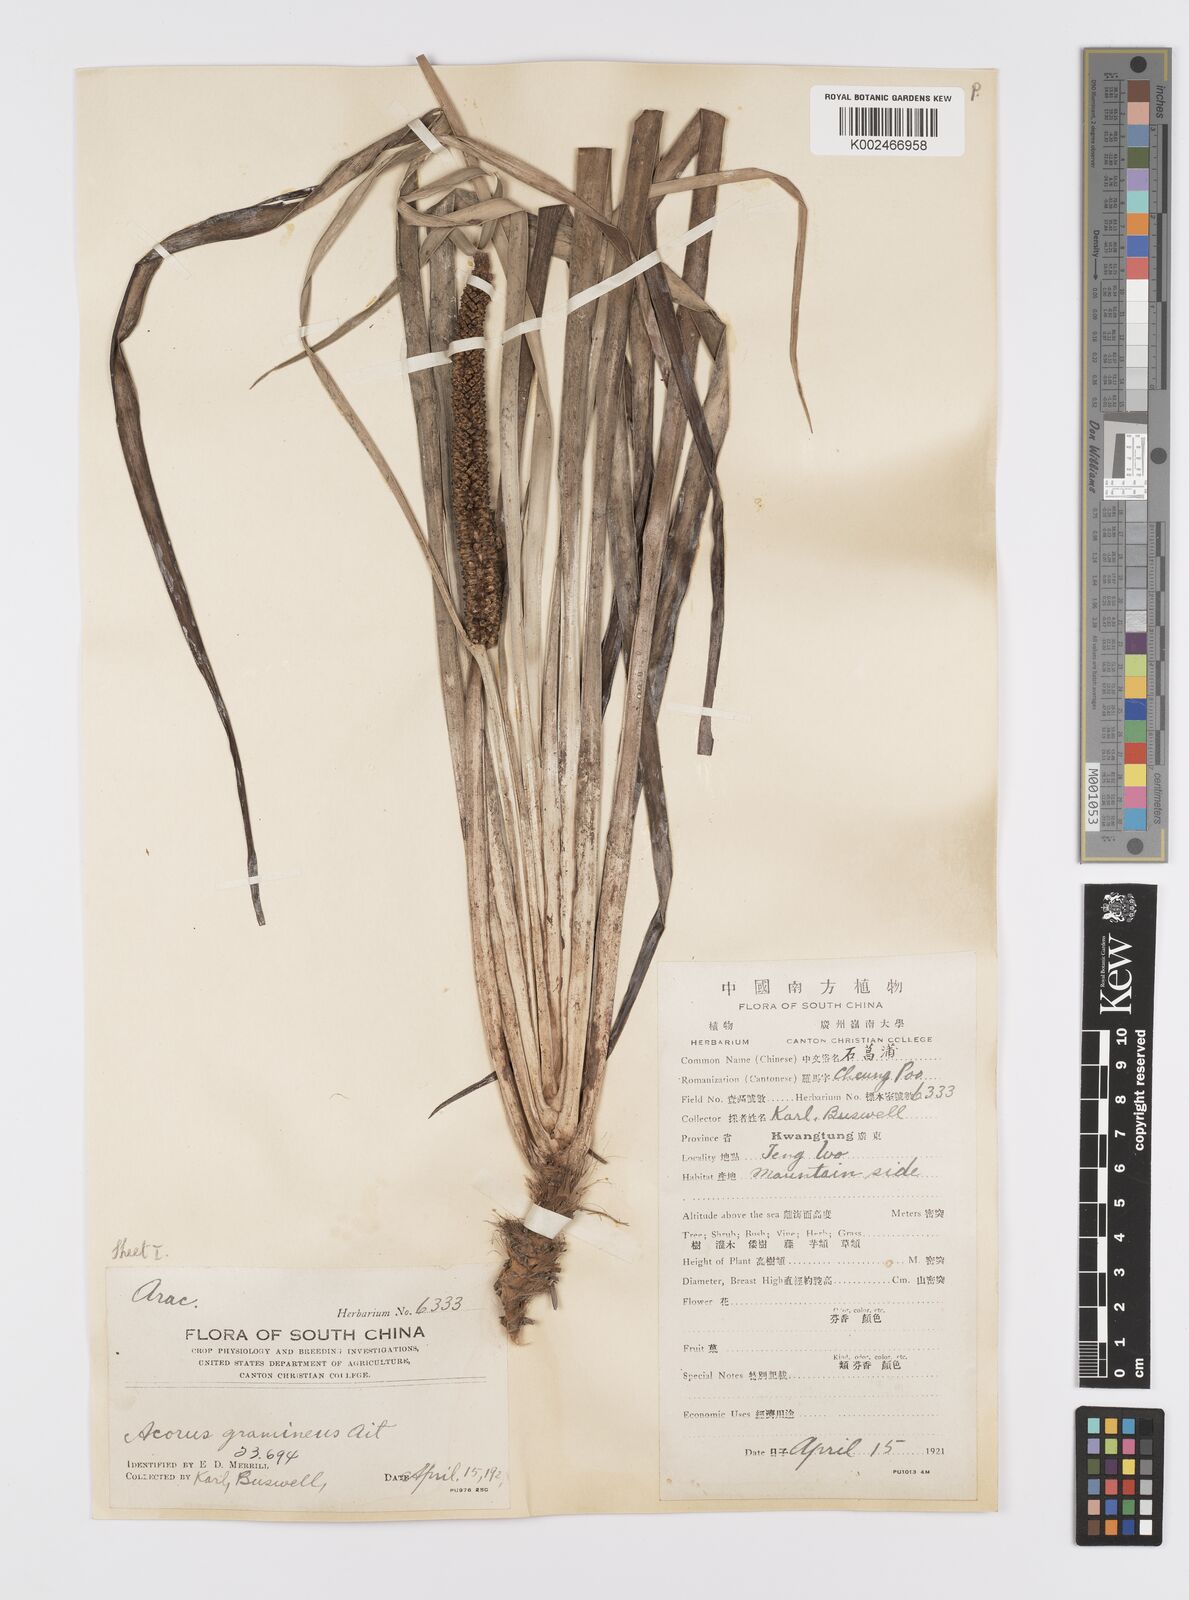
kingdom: Plantae
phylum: Tracheophyta
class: Liliopsida
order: Acorales
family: Acoraceae
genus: Acorus
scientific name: Acorus gramineus
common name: Slender sweet-flag
